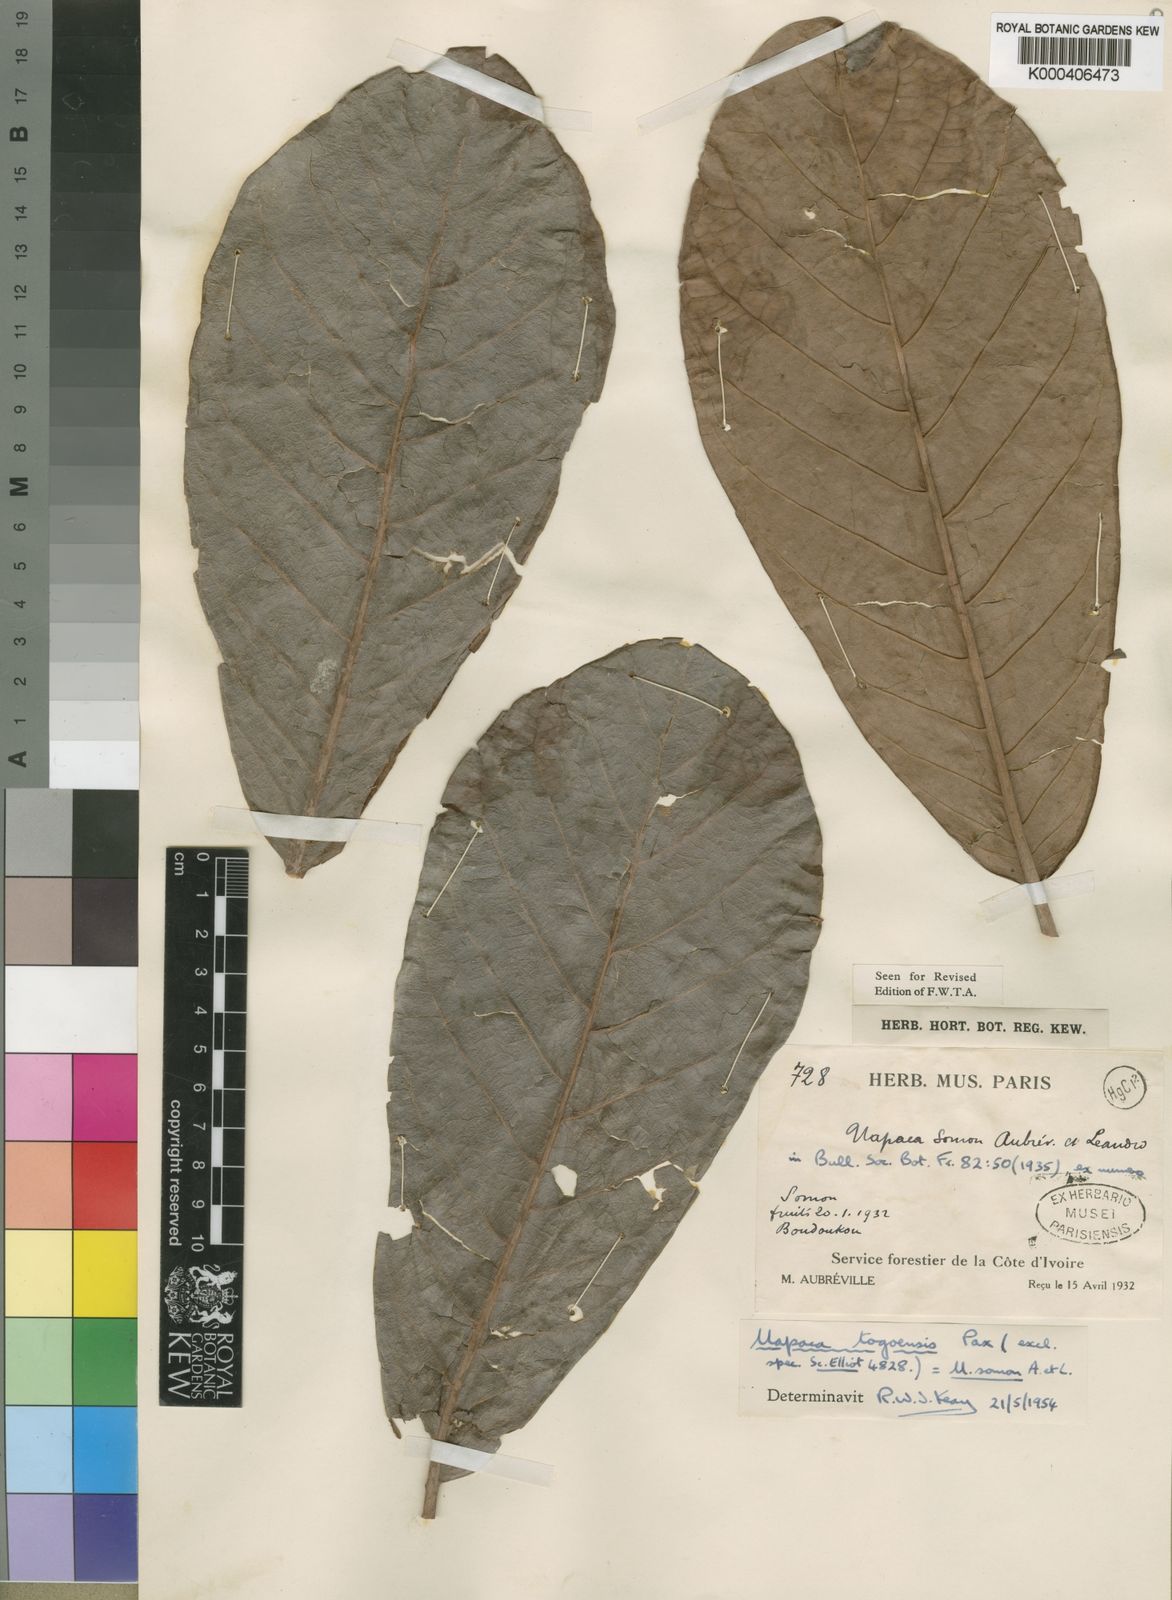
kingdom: Plantae
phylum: Tracheophyta
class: Magnoliopsida
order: Malpighiales
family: Phyllanthaceae
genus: Uapaca
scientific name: Uapaca togoensis
